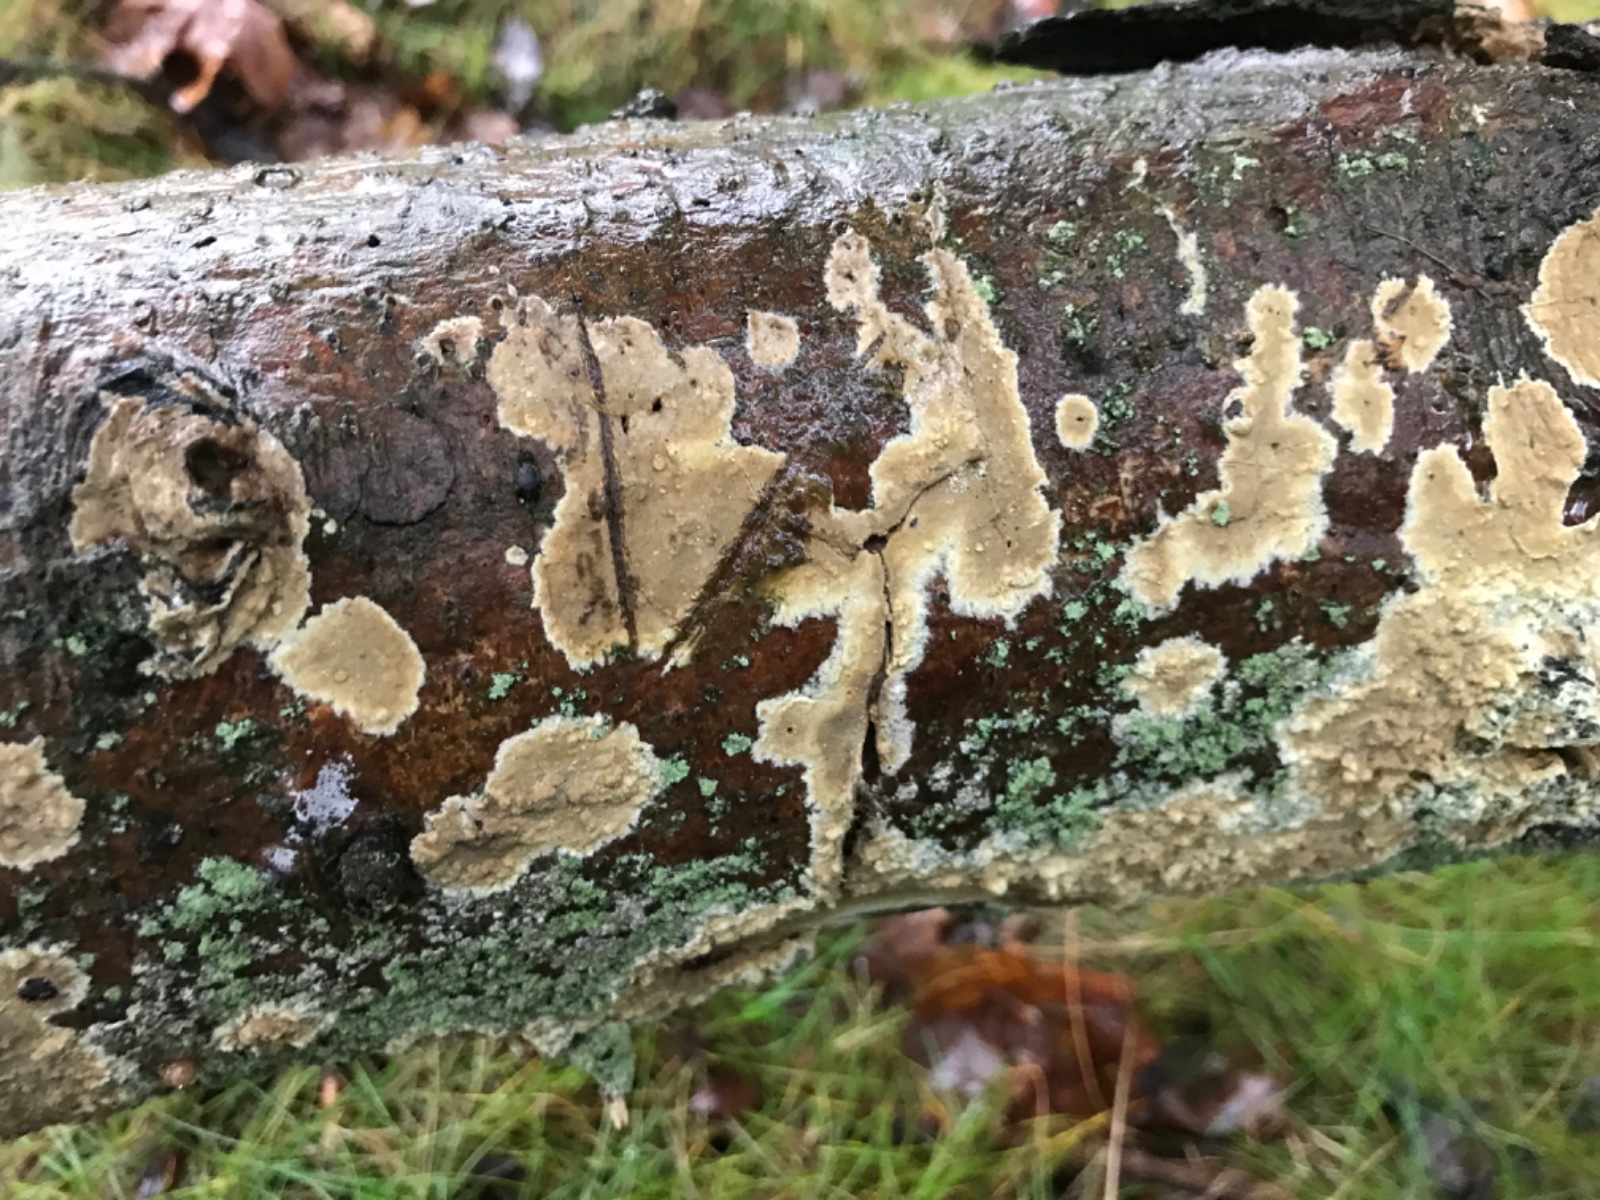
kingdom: Fungi
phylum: Basidiomycota
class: Agaricomycetes
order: Boletales
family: Coniophoraceae
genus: Coniophora
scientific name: Coniophora
